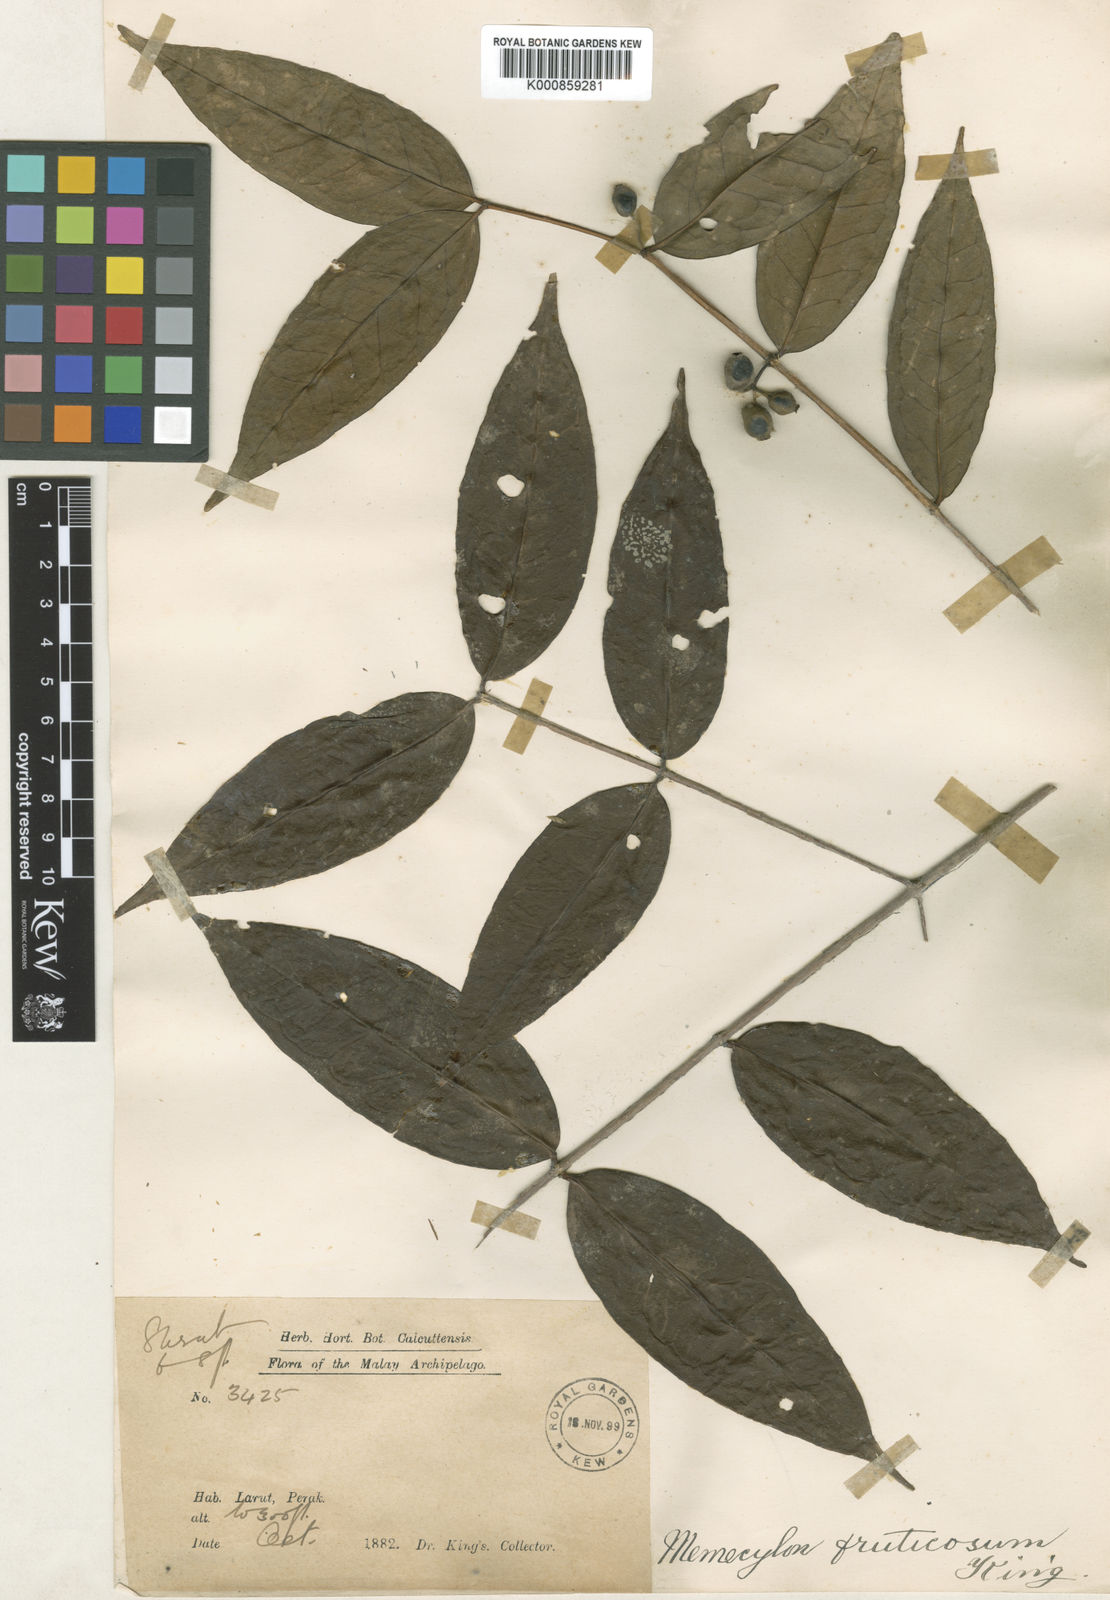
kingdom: Plantae
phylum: Tracheophyta
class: Magnoliopsida
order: Myrtales
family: Melastomataceae
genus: Memecylon
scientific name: Memecylon fruticosum
